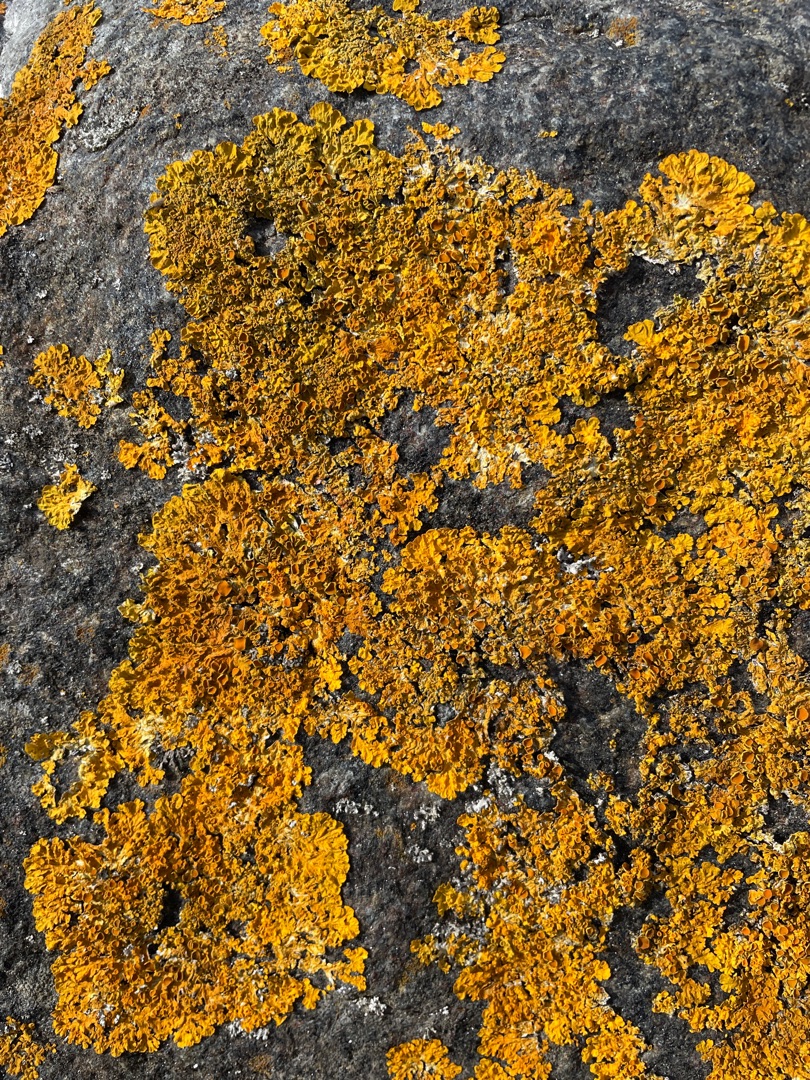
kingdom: Fungi
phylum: Ascomycota
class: Lecanoromycetes
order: Teloschistales
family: Teloschistaceae
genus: Xanthoria
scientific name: Xanthoria parietina
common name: Almindelig væggelav
